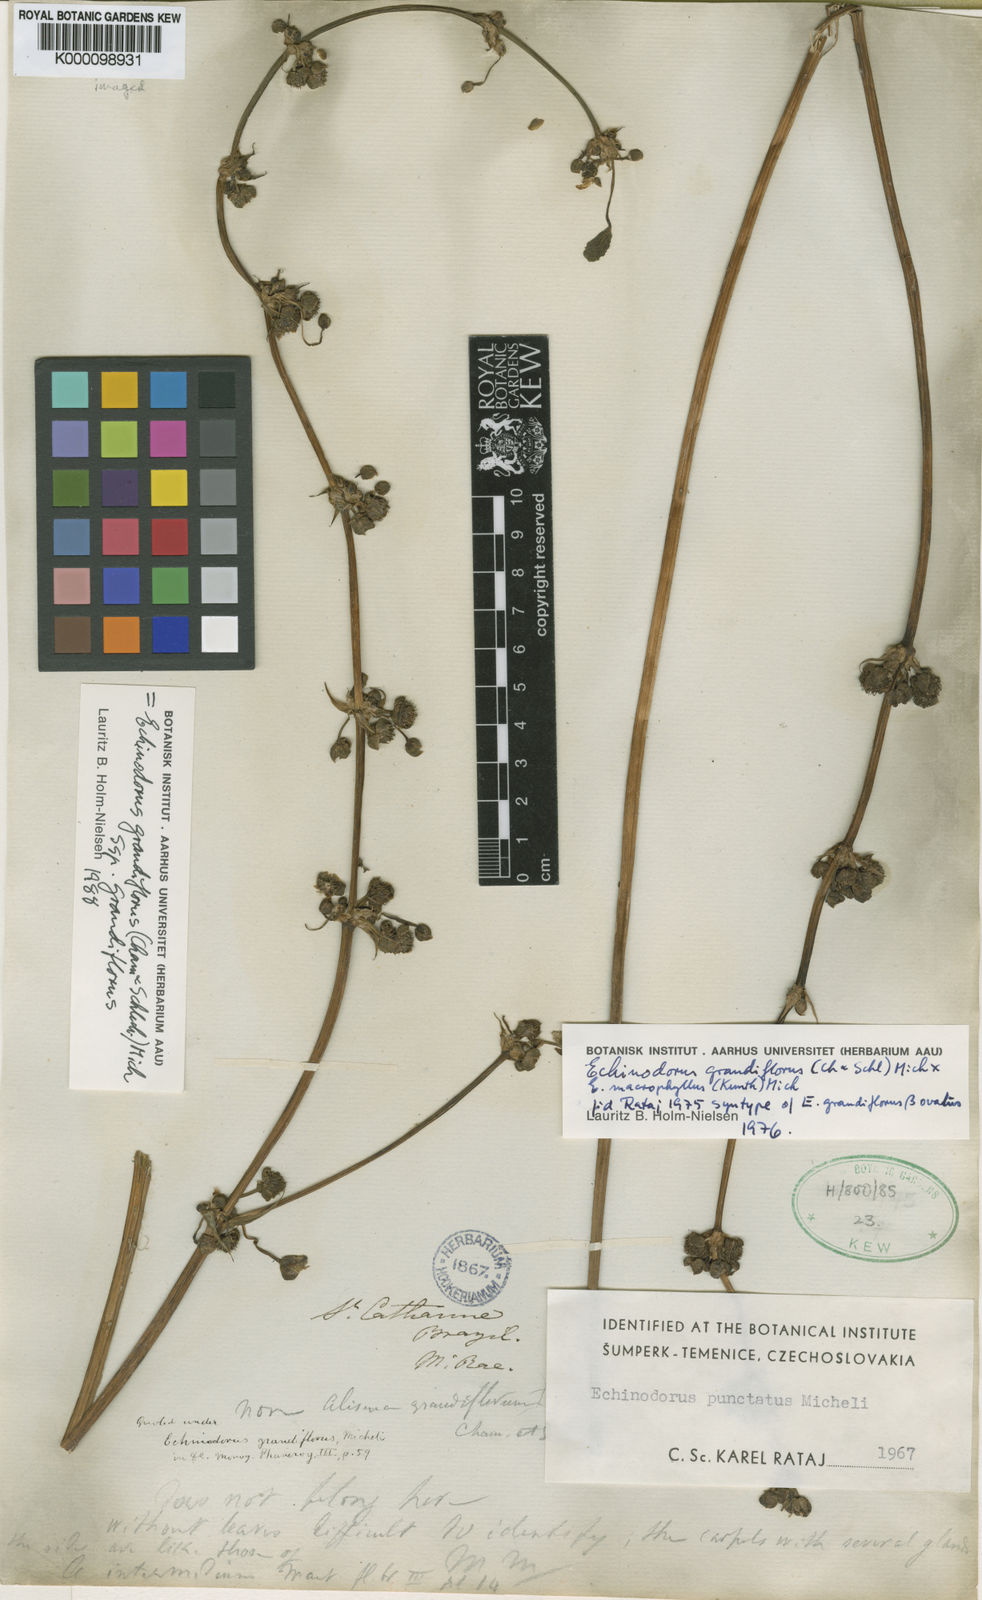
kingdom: Plantae
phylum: Tracheophyta
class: Liliopsida
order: Alismatales
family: Alismataceae
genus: Aquarius
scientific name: Aquarius grandiflorus
